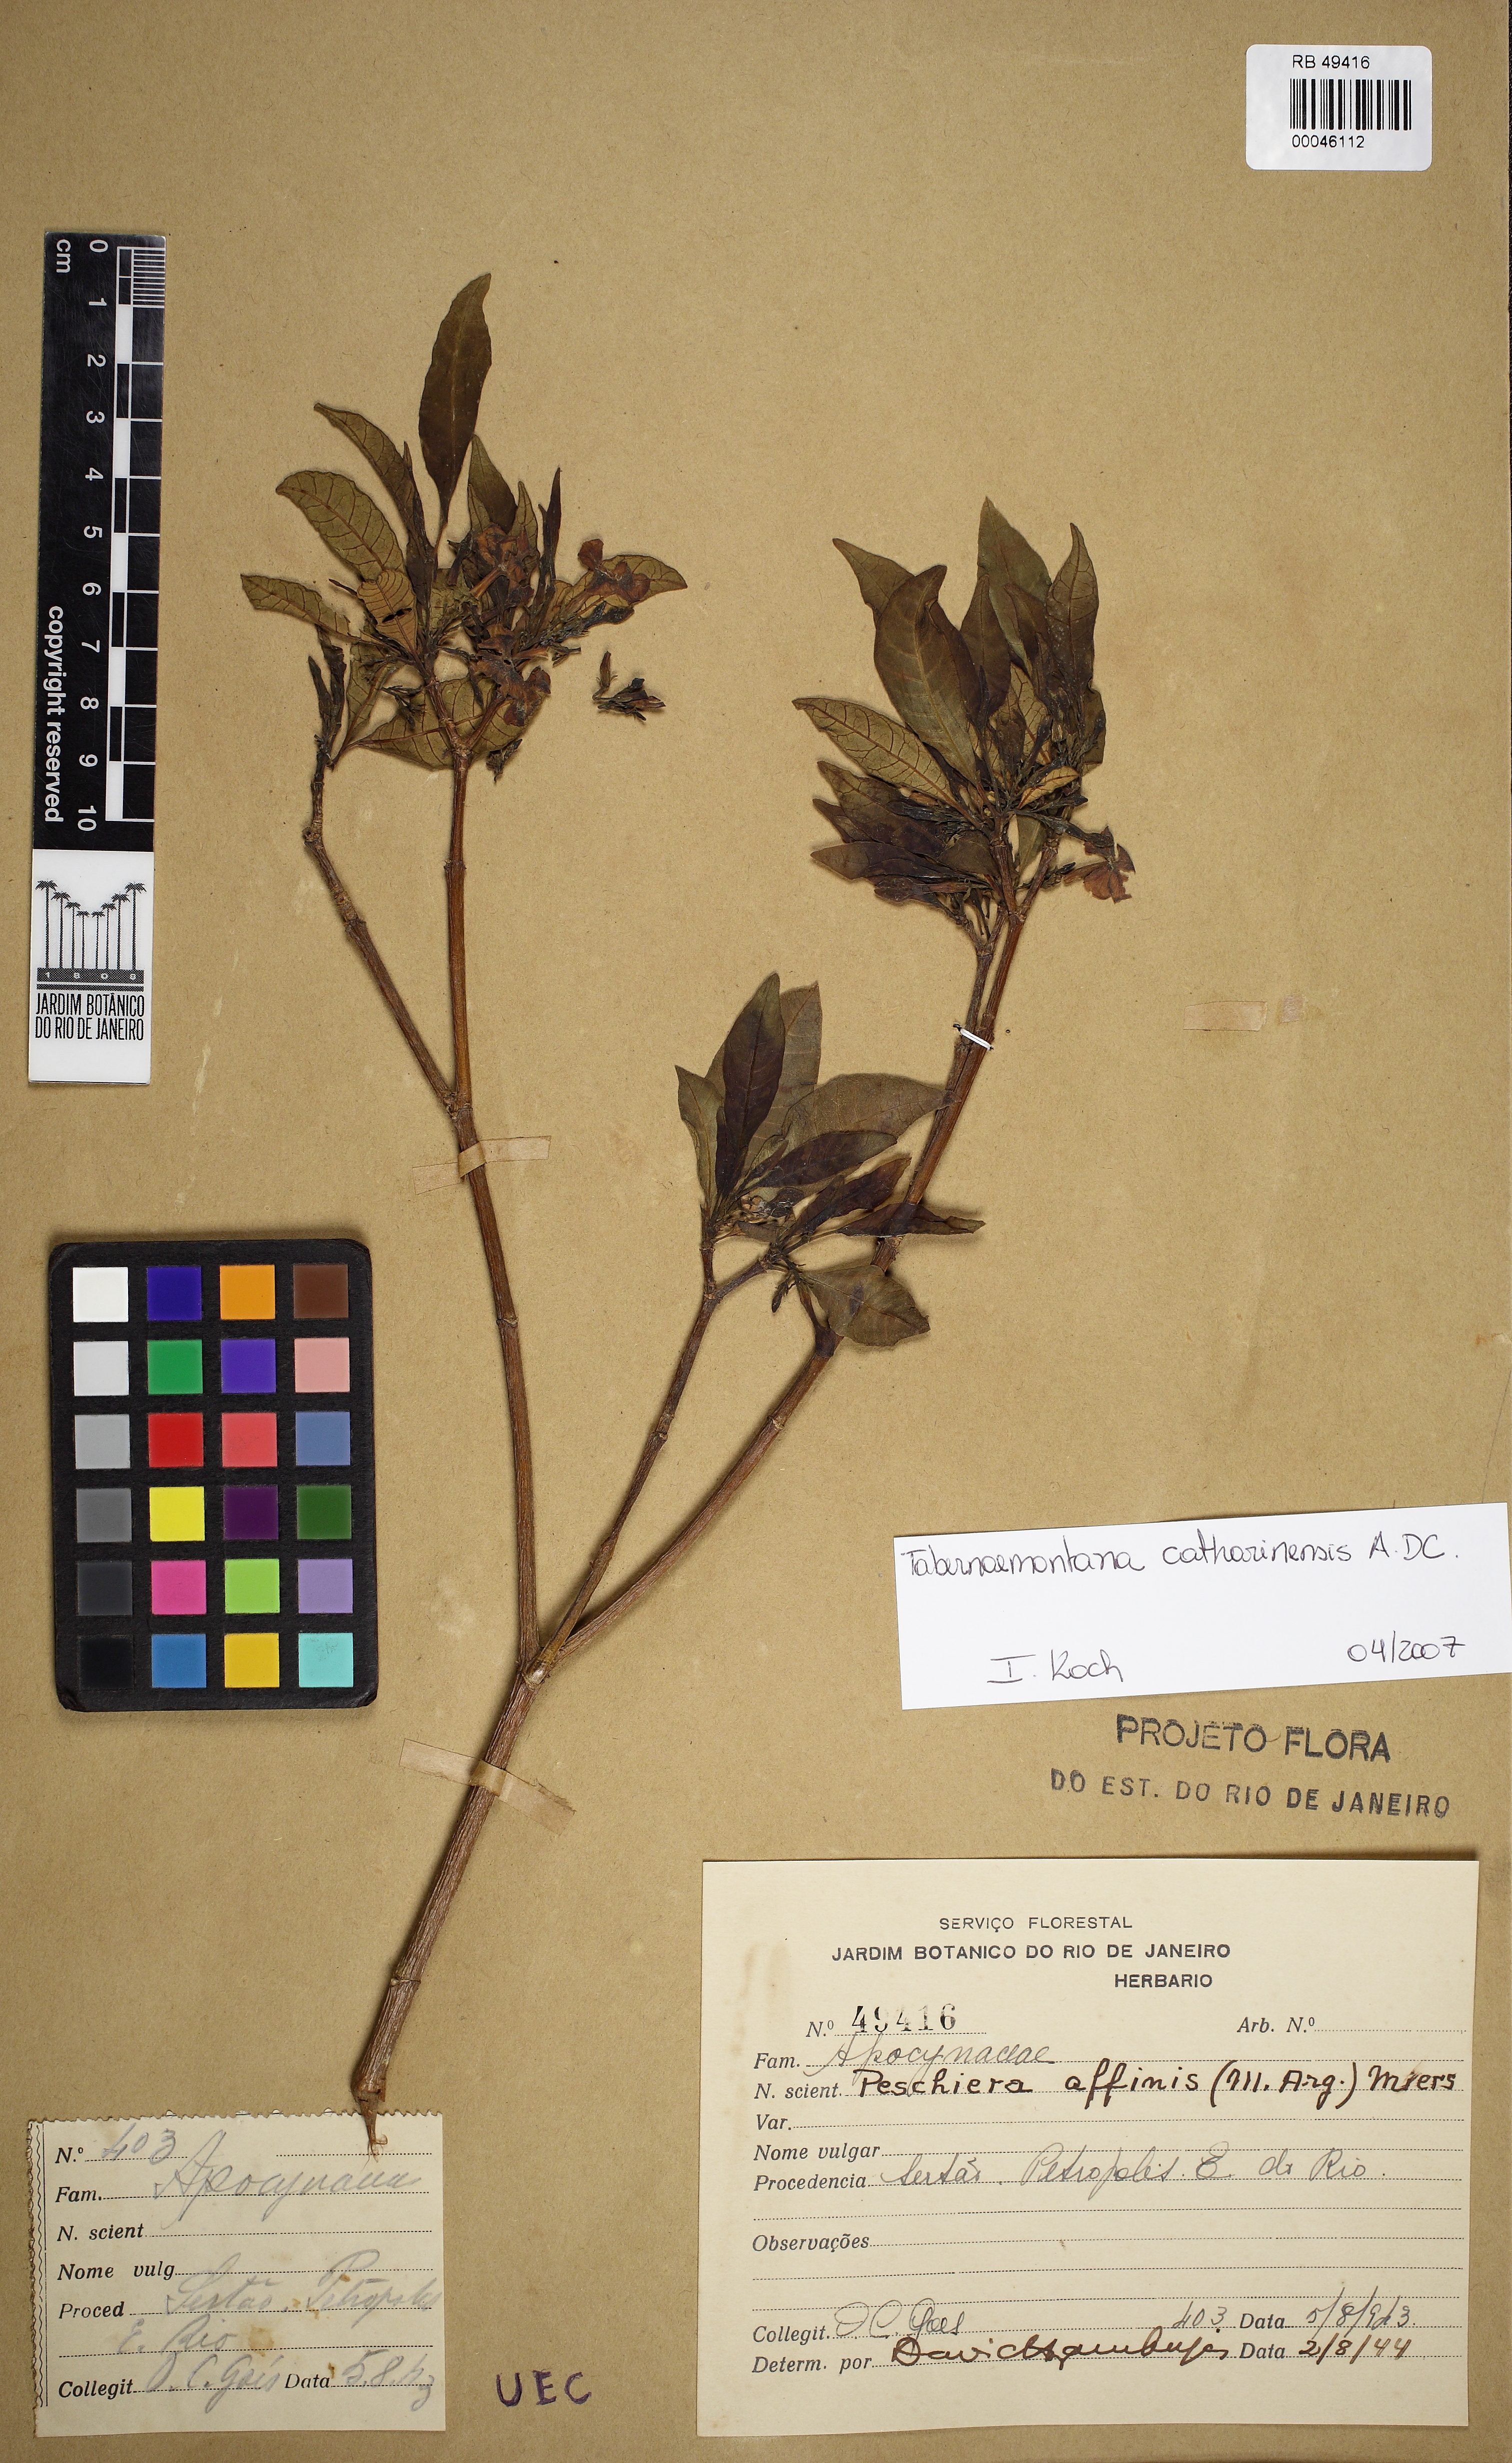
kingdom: Plantae
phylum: Tracheophyta
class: Magnoliopsida
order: Gentianales
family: Apocynaceae
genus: Tabernaemontana
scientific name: Tabernaemontana catharinensis
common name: Pinwheel-flower
